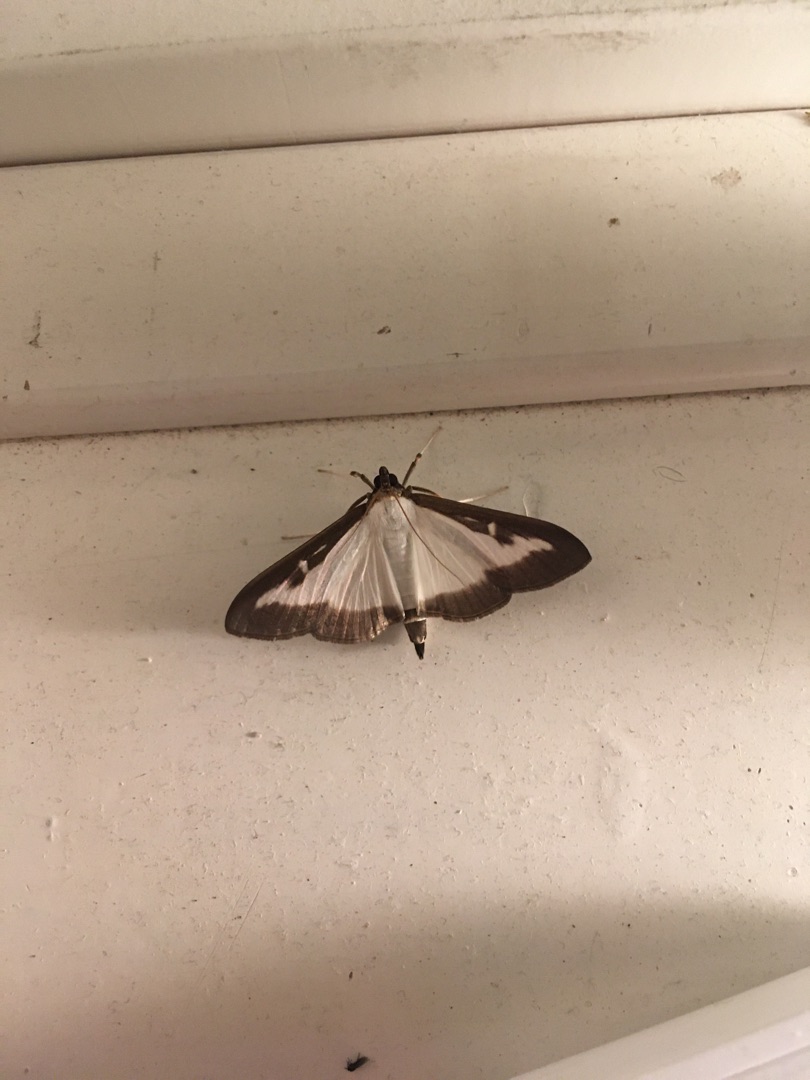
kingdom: Animalia
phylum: Arthropoda
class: Insecta
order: Lepidoptera
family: Crambidae
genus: Cydalima
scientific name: Cydalima perspectalis
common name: Buksbomhalvmøl
